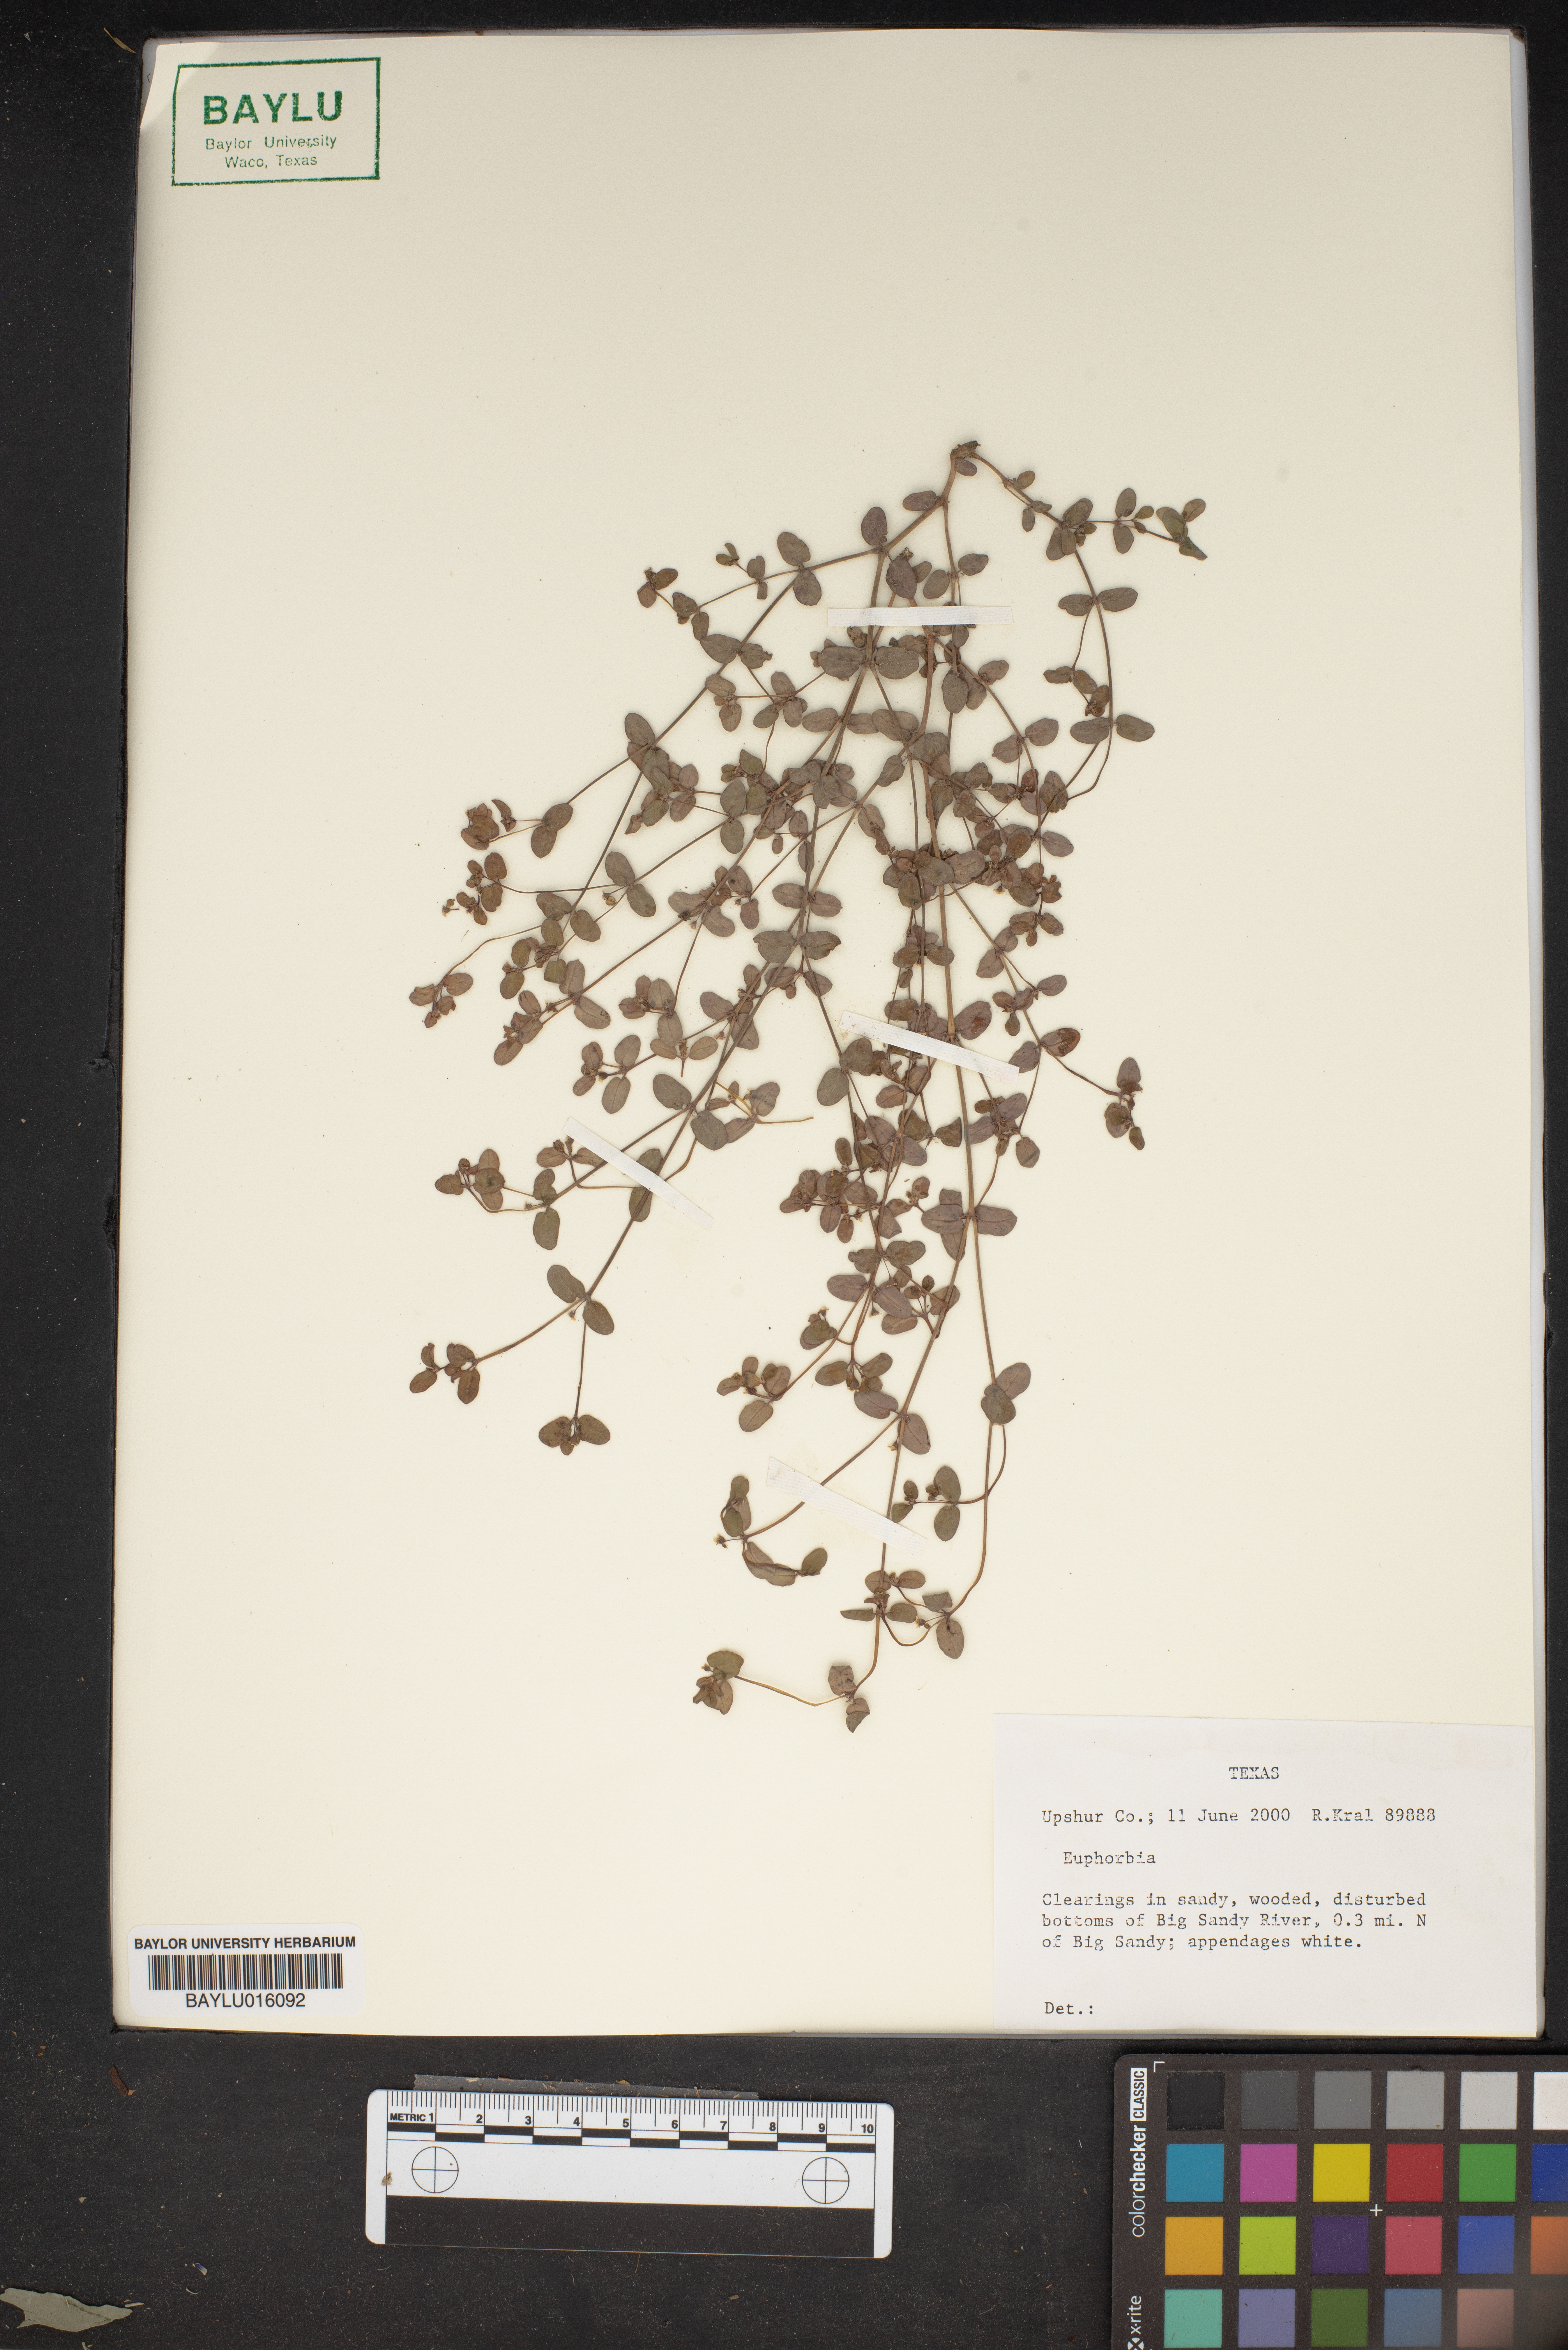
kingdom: Plantae
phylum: Tracheophyta
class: Magnoliopsida
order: Malpighiales
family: Euphorbiaceae
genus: Euphorbia
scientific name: Euphorbia
